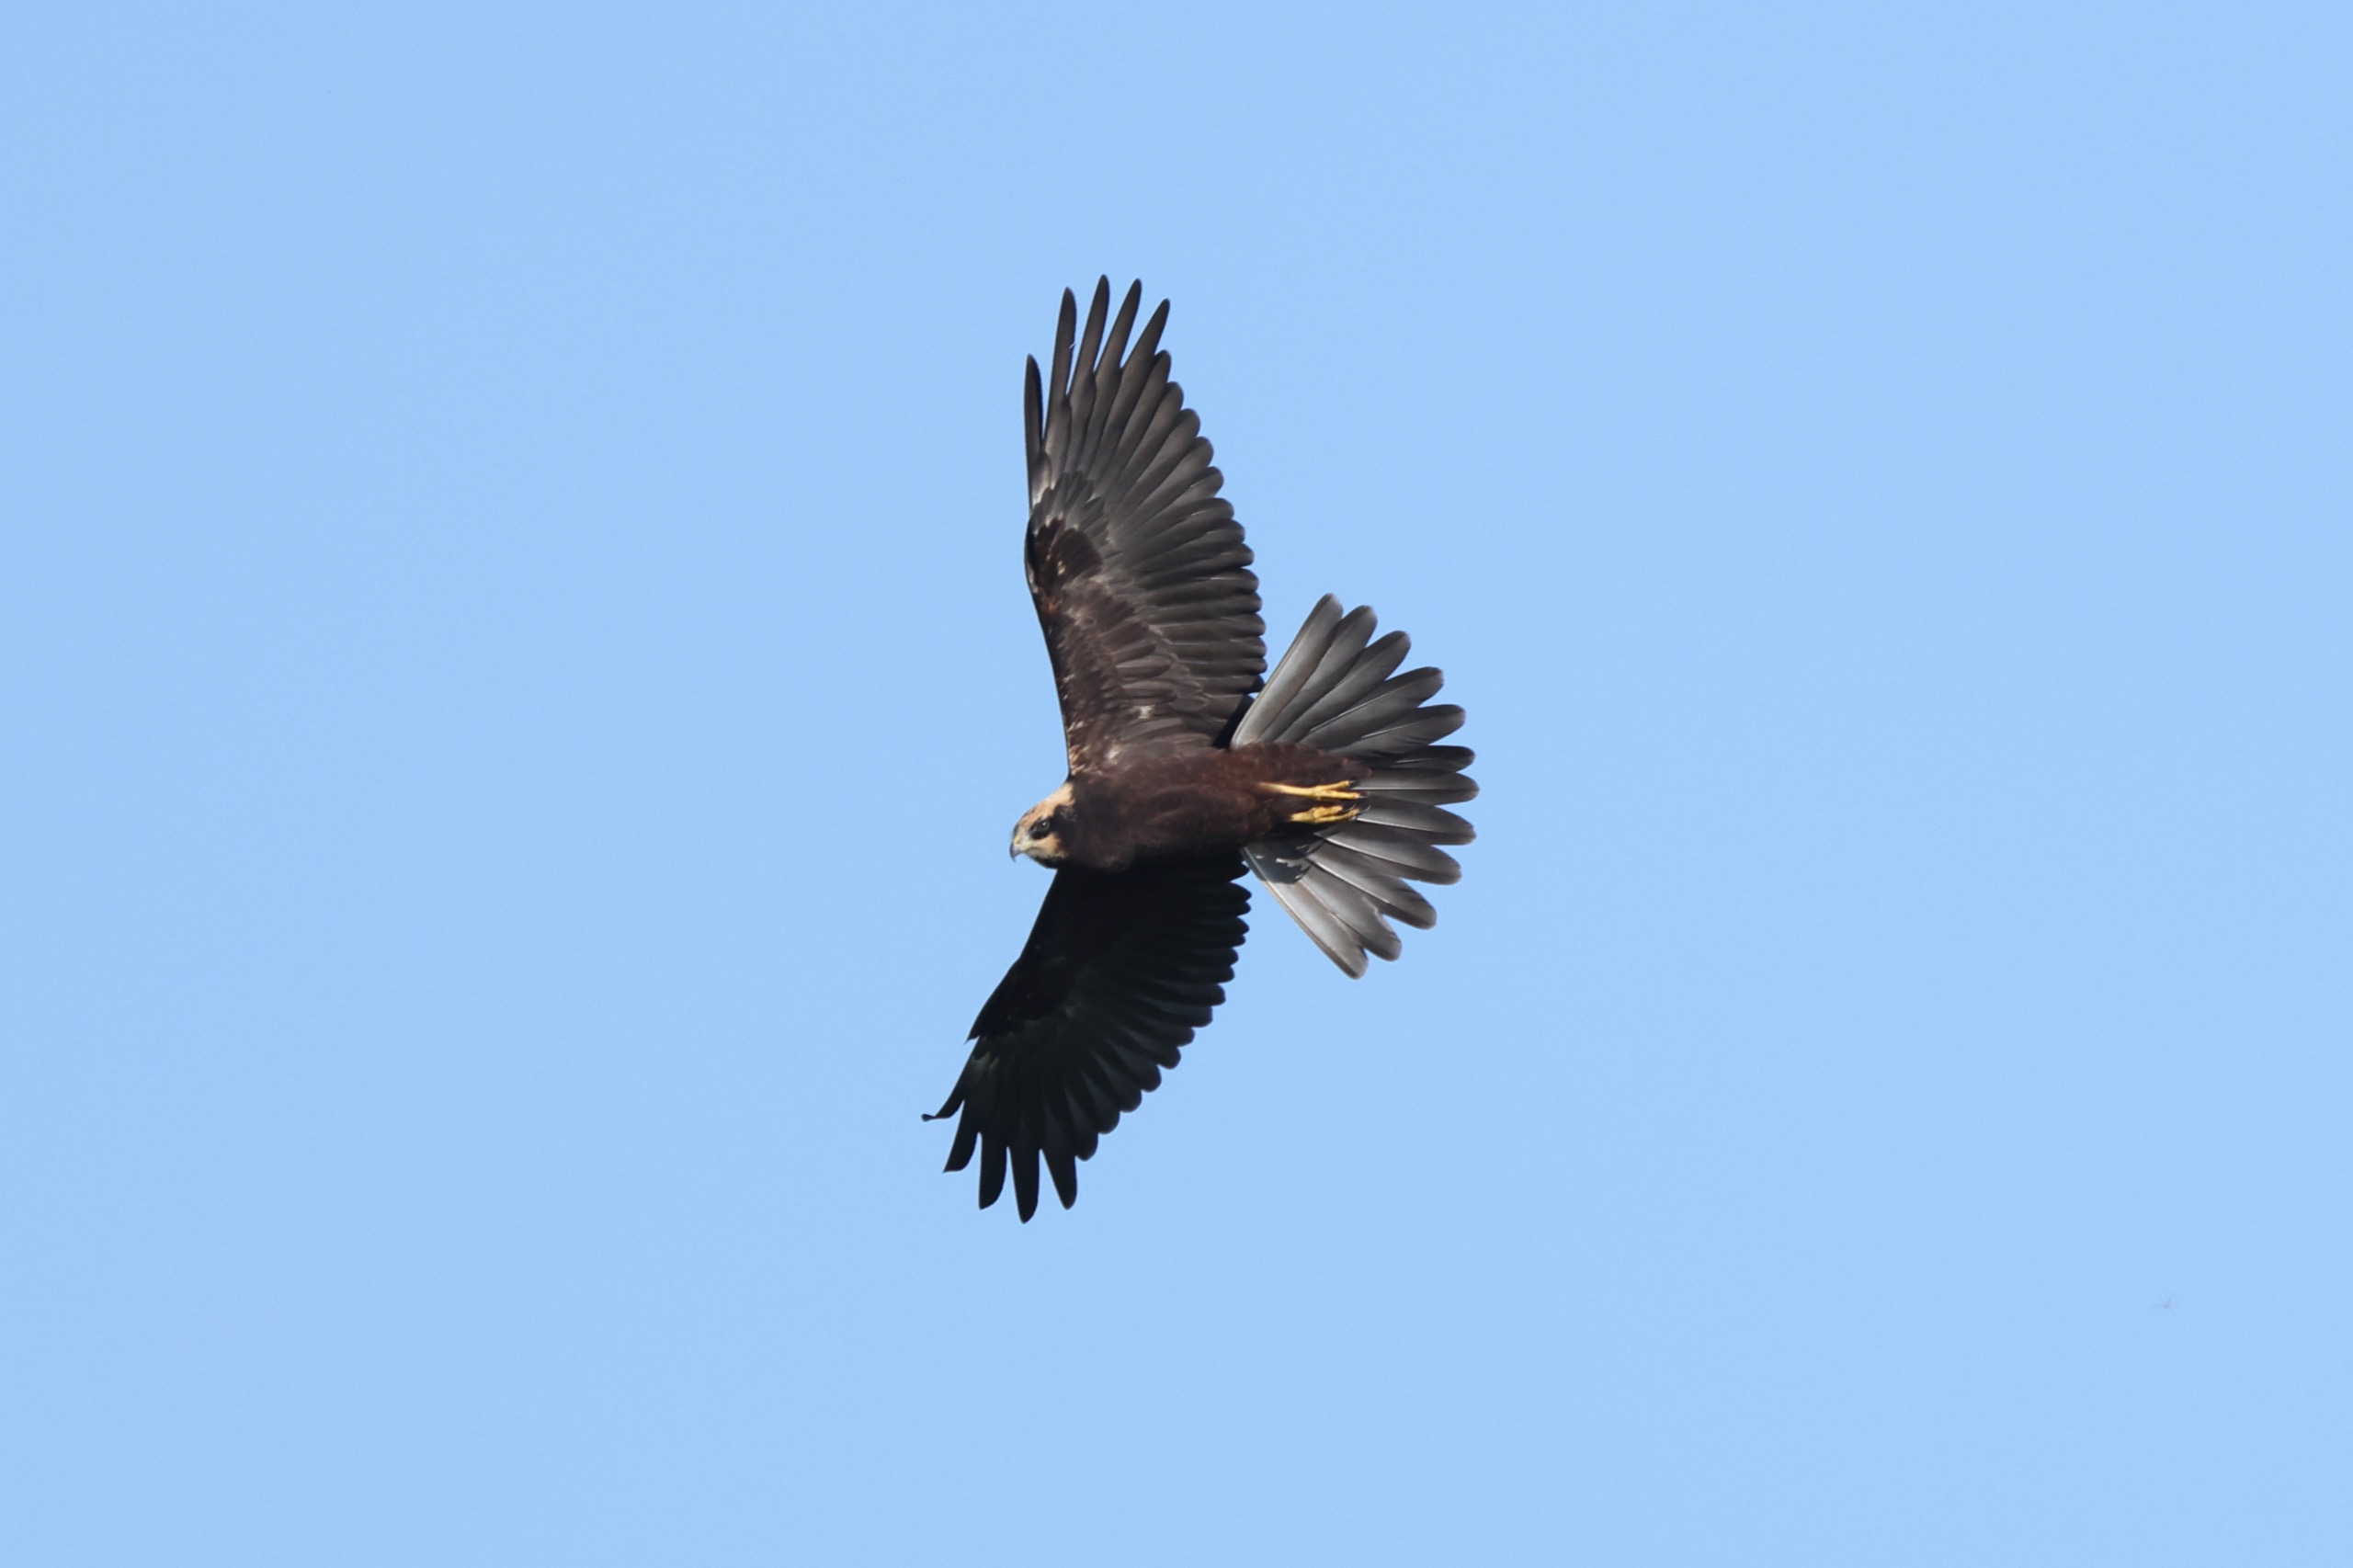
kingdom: Animalia
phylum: Chordata
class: Aves
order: Accipitriformes
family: Accipitridae
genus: Circus
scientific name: Circus aeruginosus
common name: Rørhøg
